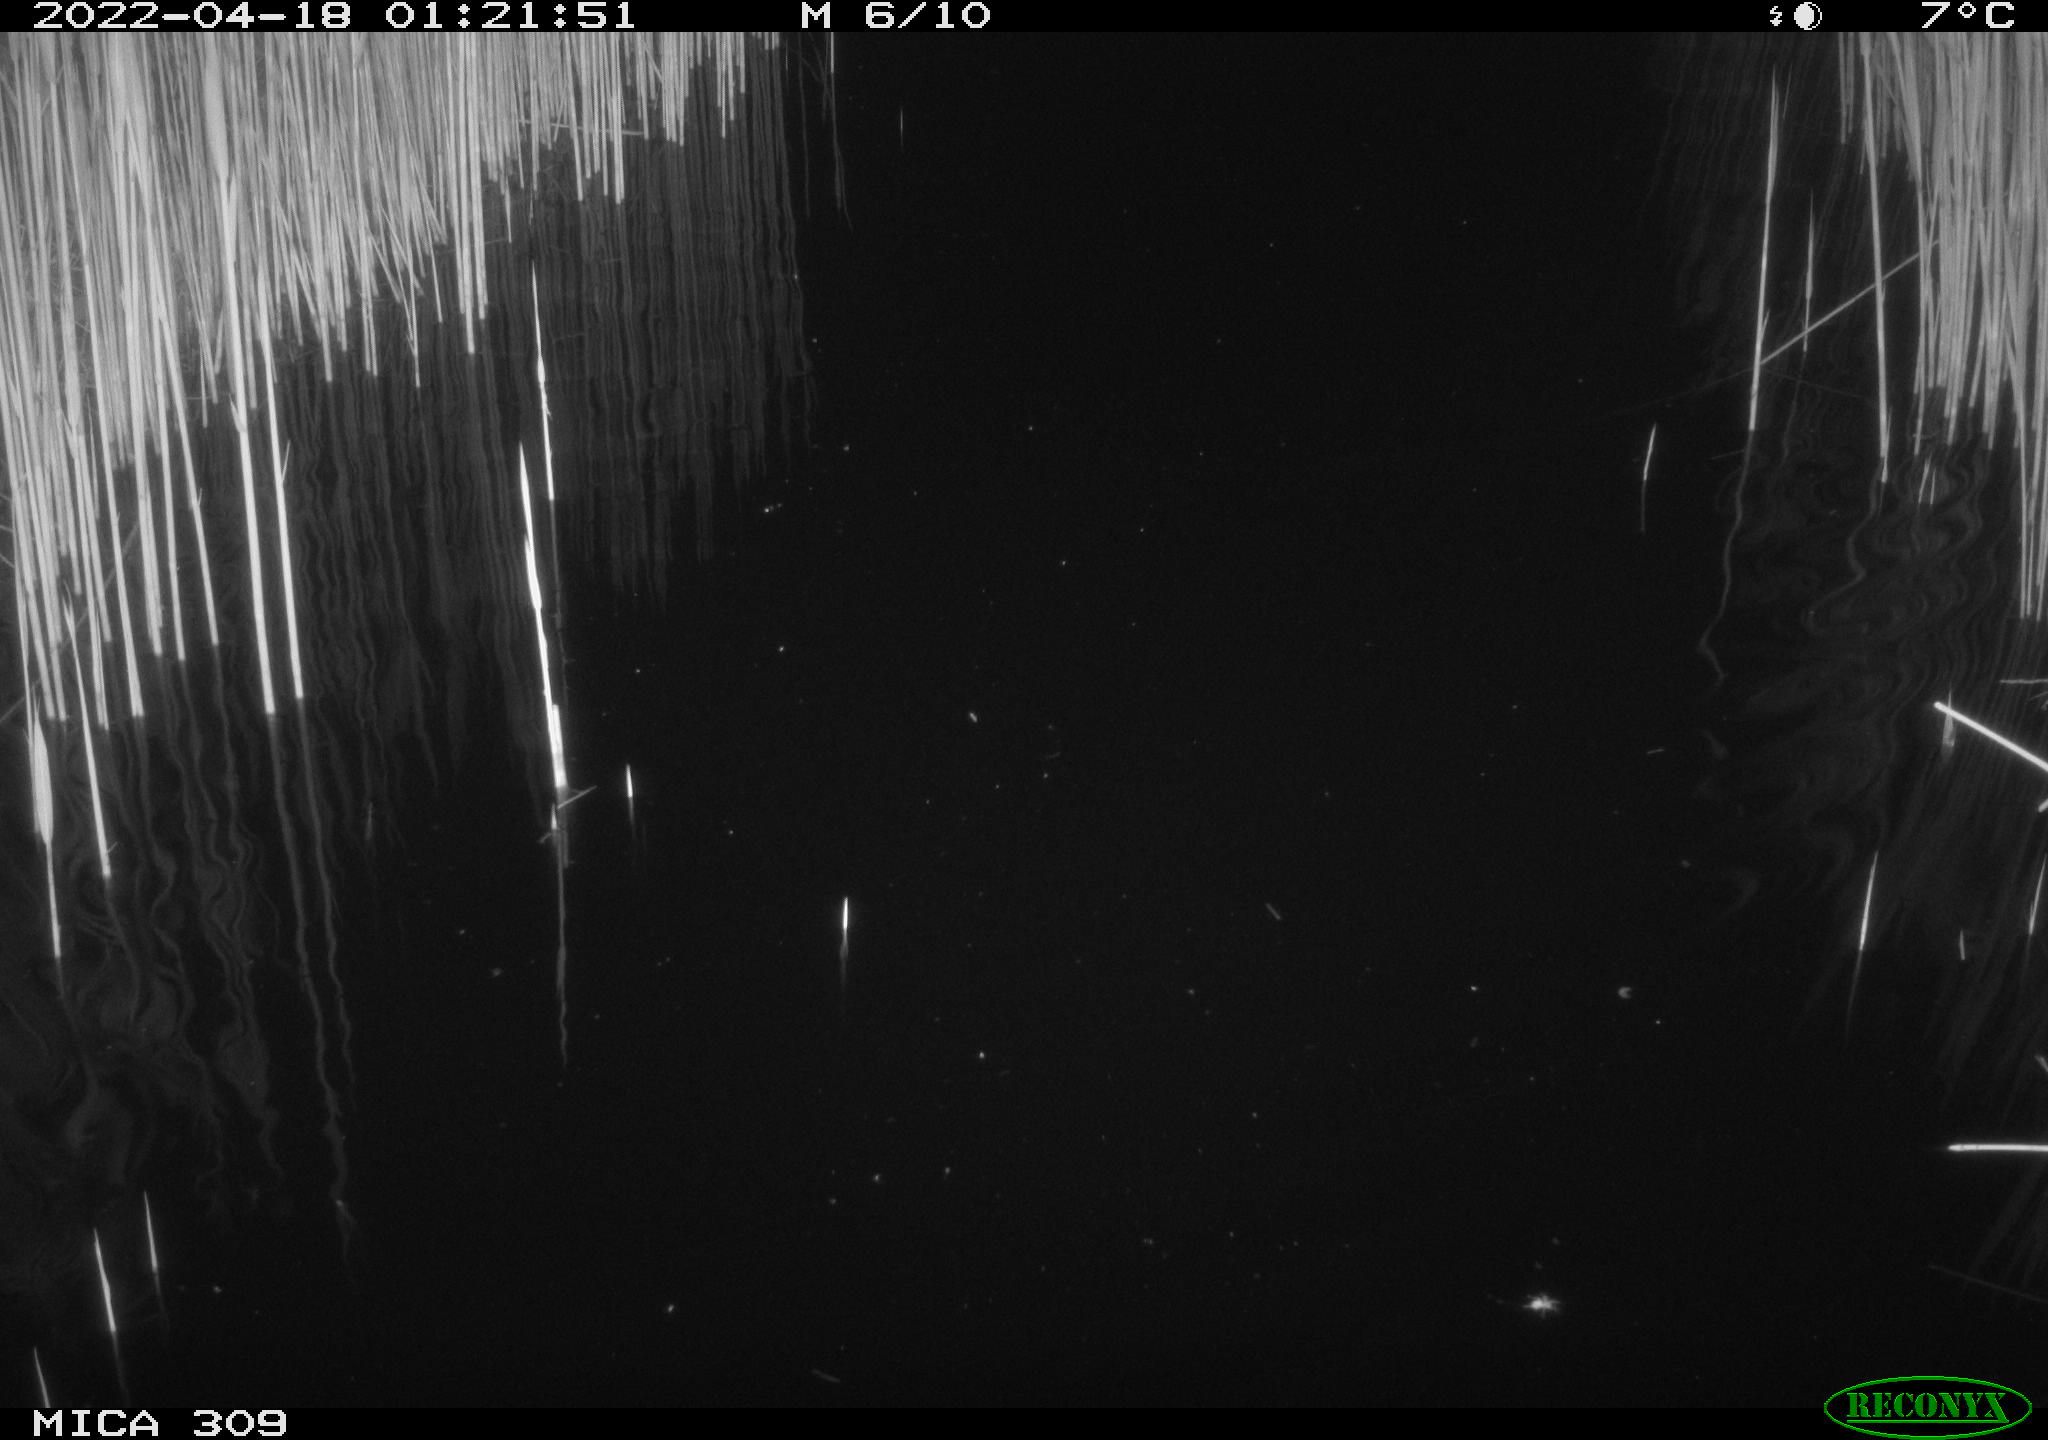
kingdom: Animalia
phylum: Chordata
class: Aves
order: Anseriformes
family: Anatidae
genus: Anas
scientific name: Anas platyrhynchos
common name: Mallard
